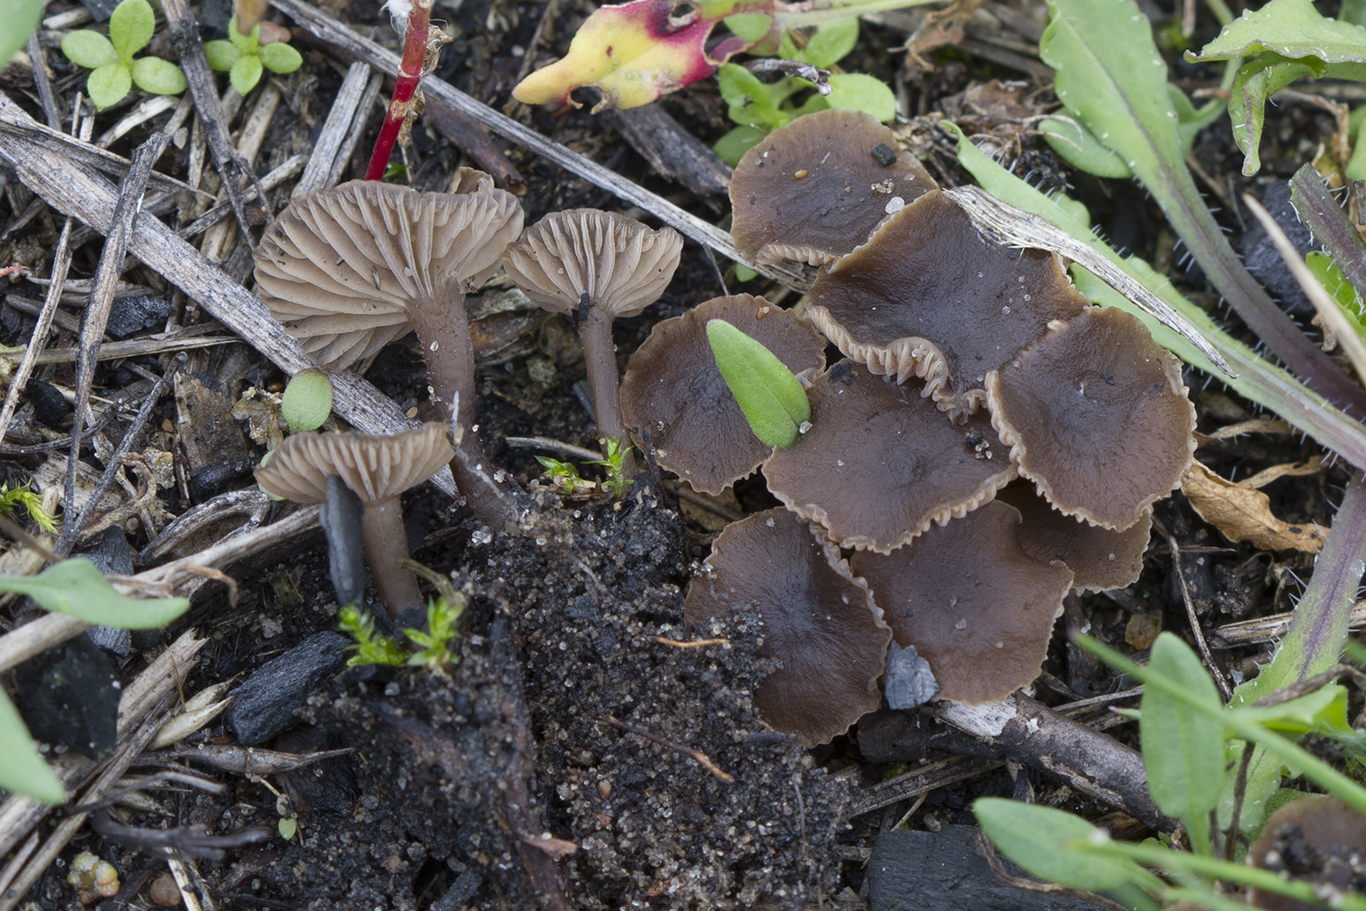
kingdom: Fungi
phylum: Basidiomycota
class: Agaricomycetes
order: Agaricales
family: Lyophyllaceae
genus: Tephrocybe
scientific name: Tephrocybe ambusta
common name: kul-gråblad
